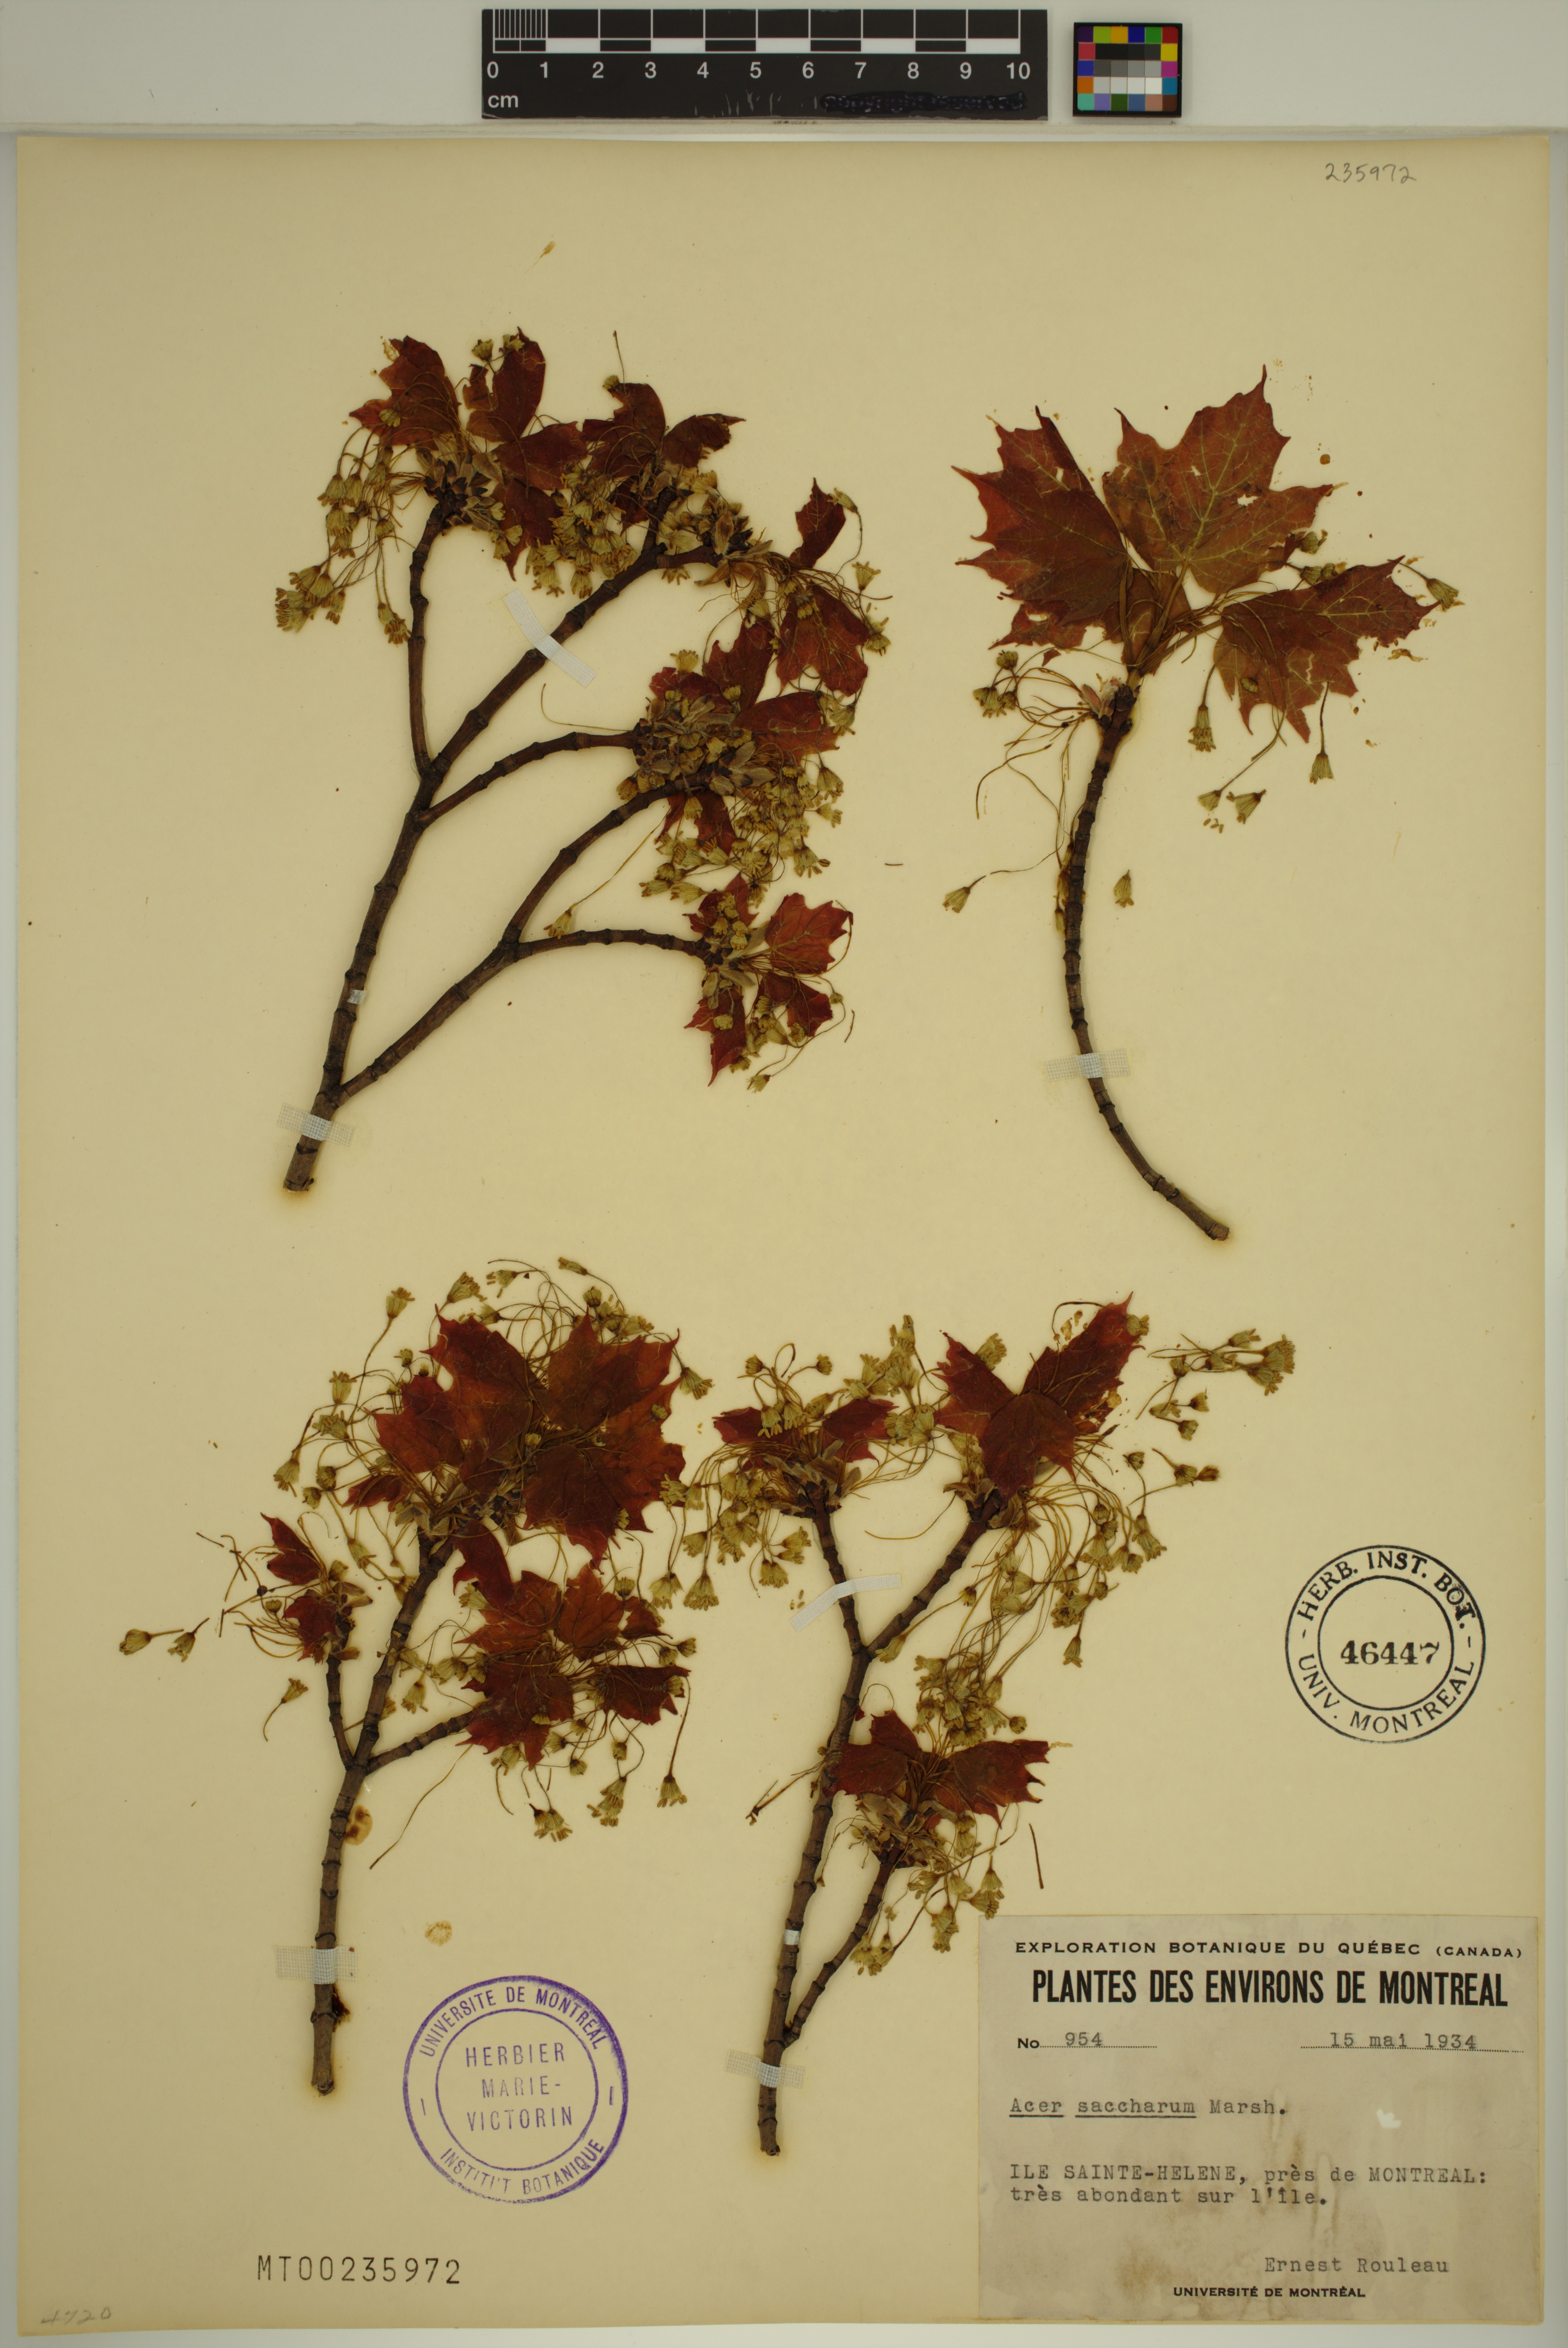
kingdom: Plantae
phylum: Tracheophyta
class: Magnoliopsida
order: Sapindales
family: Sapindaceae
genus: Acer
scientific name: Acer saccharum
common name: Sugar maple
